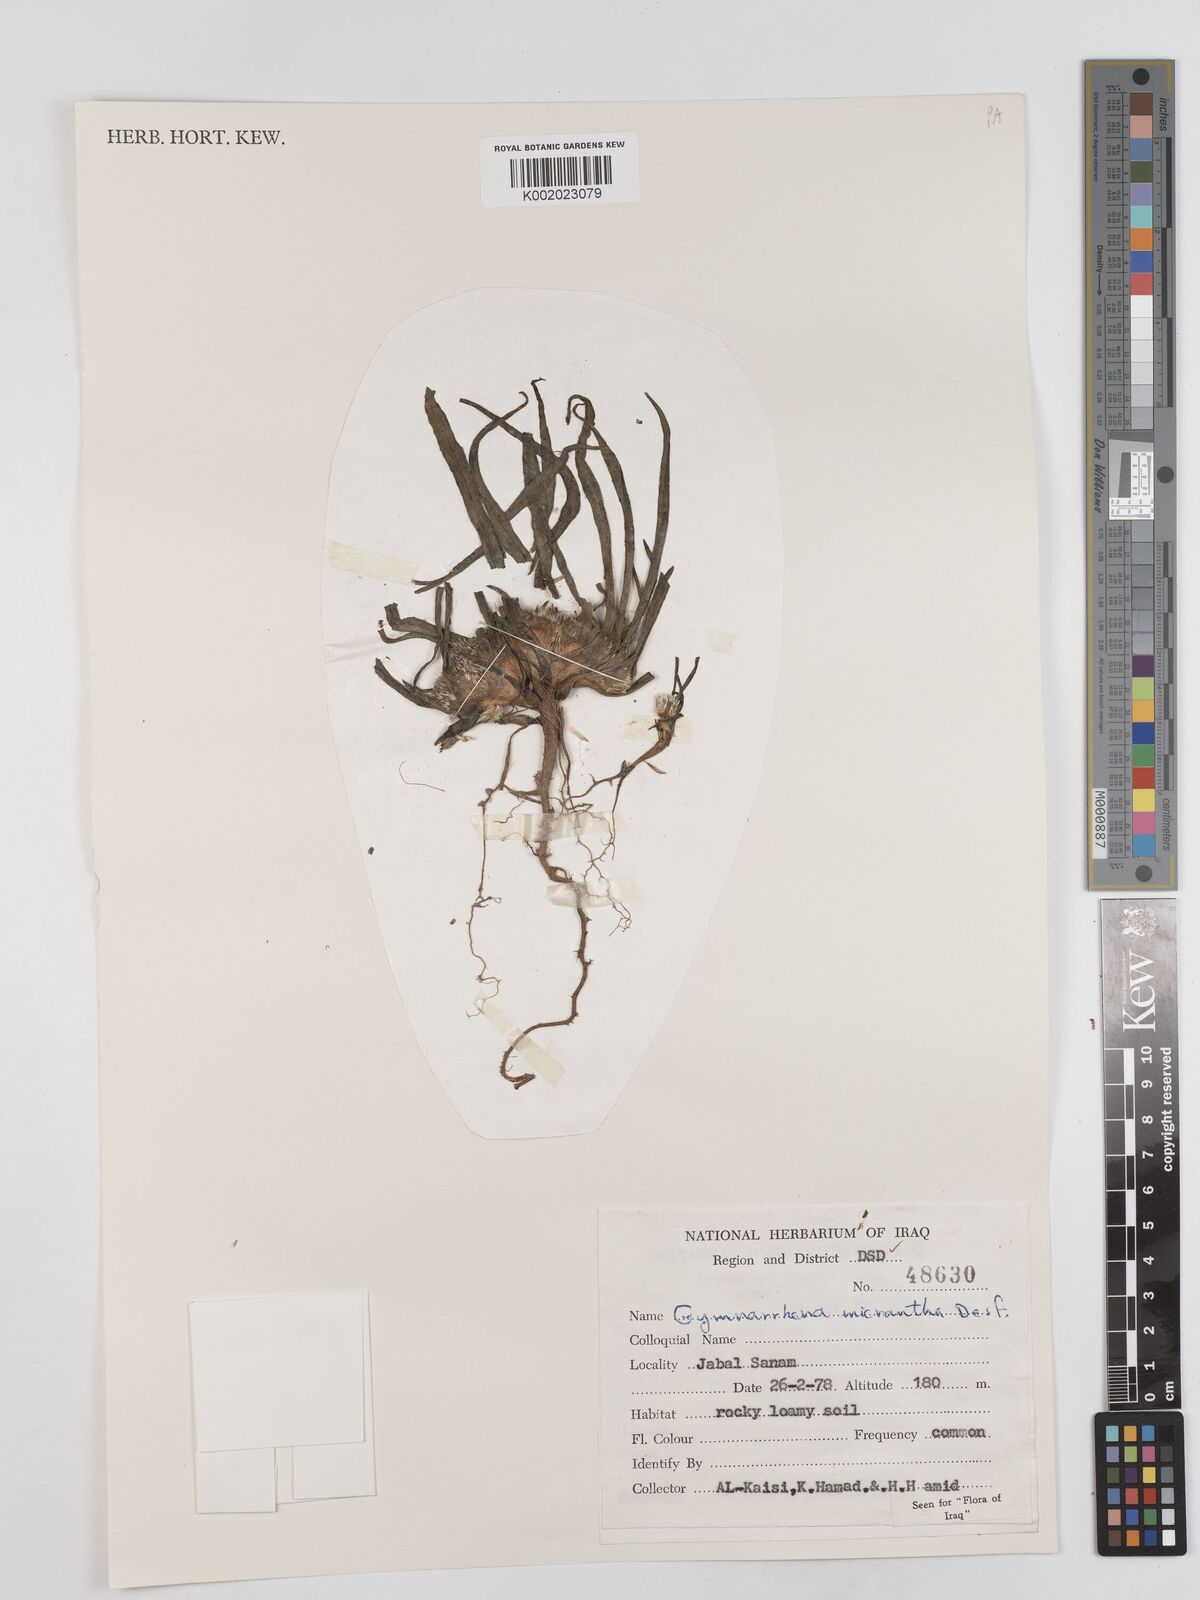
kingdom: Plantae
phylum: Tracheophyta
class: Magnoliopsida
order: Asterales
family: Asteraceae
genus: Gymnarrhena
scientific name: Gymnarrhena micrantha
